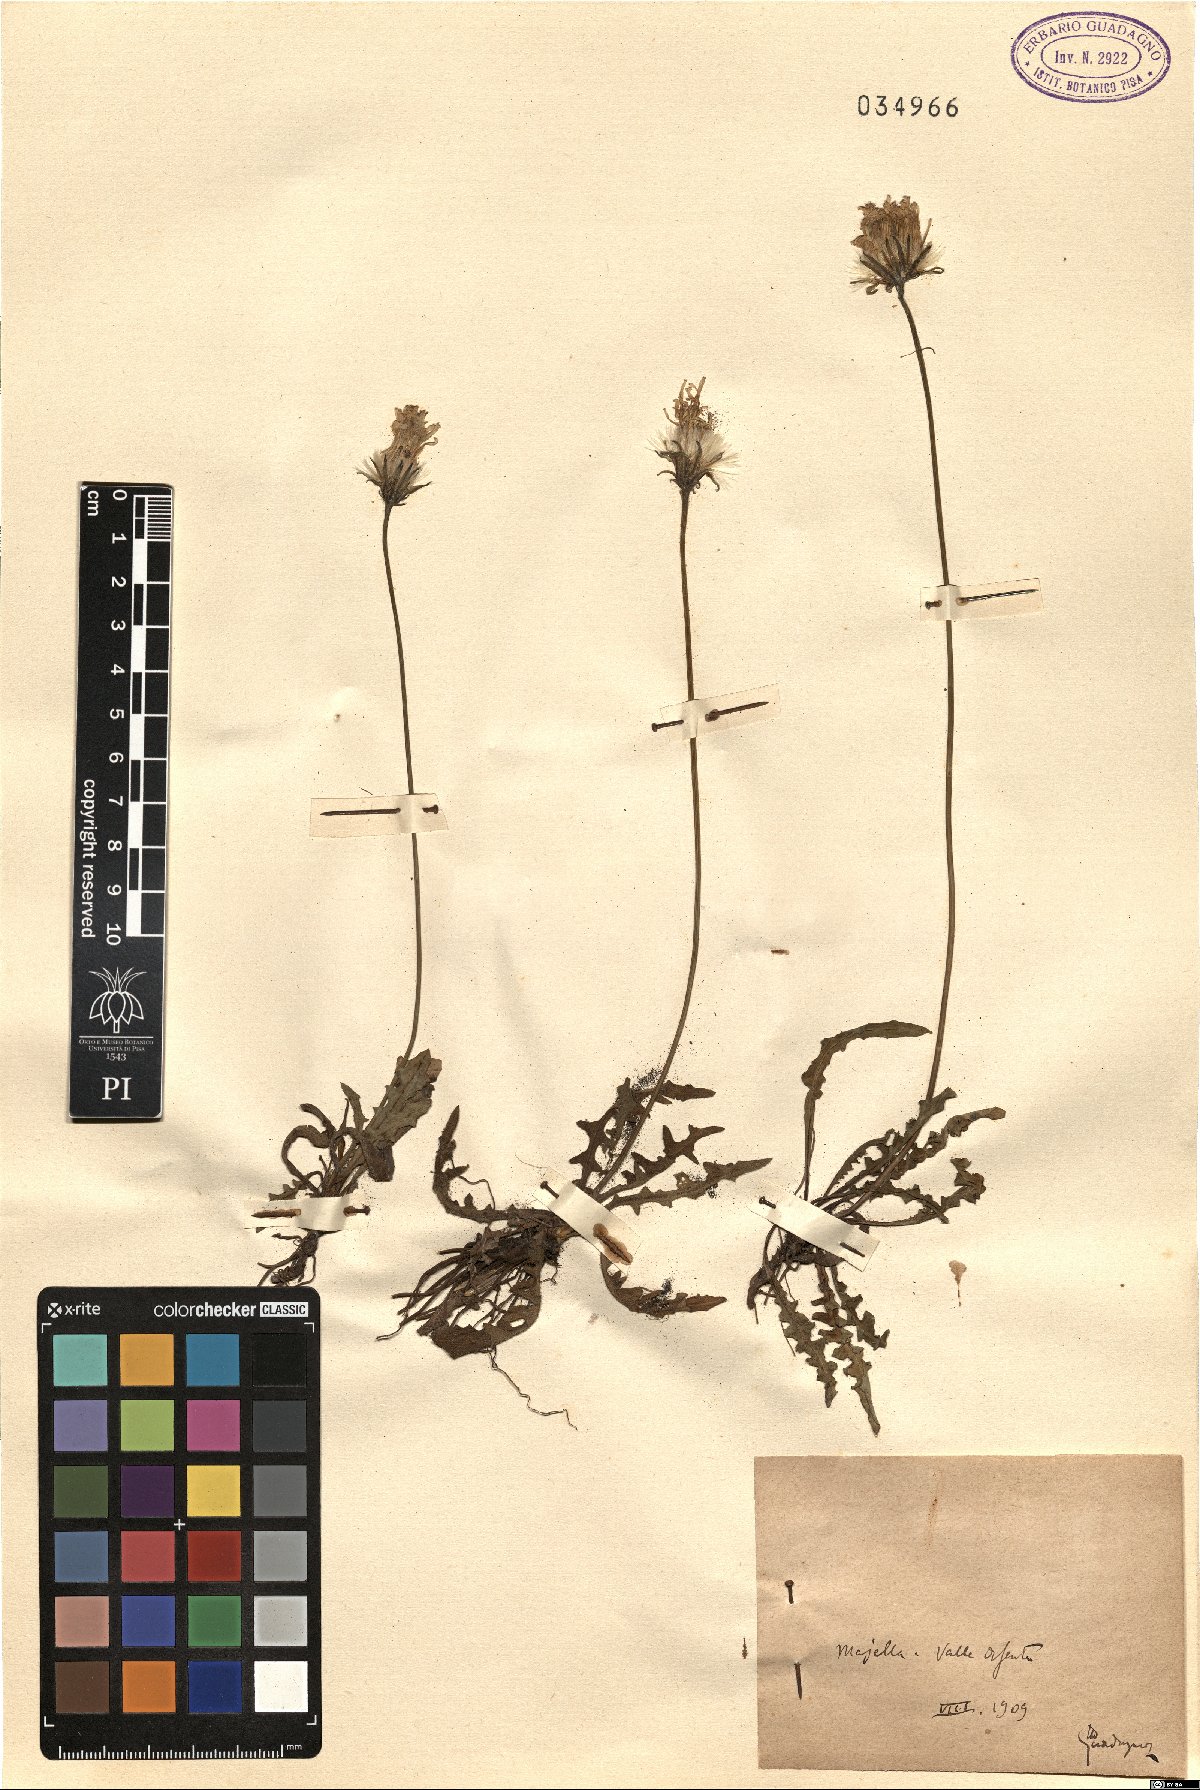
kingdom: Plantae
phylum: Tracheophyta
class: Magnoliopsida
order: Asterales
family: Asteraceae
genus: Leontodon
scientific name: Leontodon
